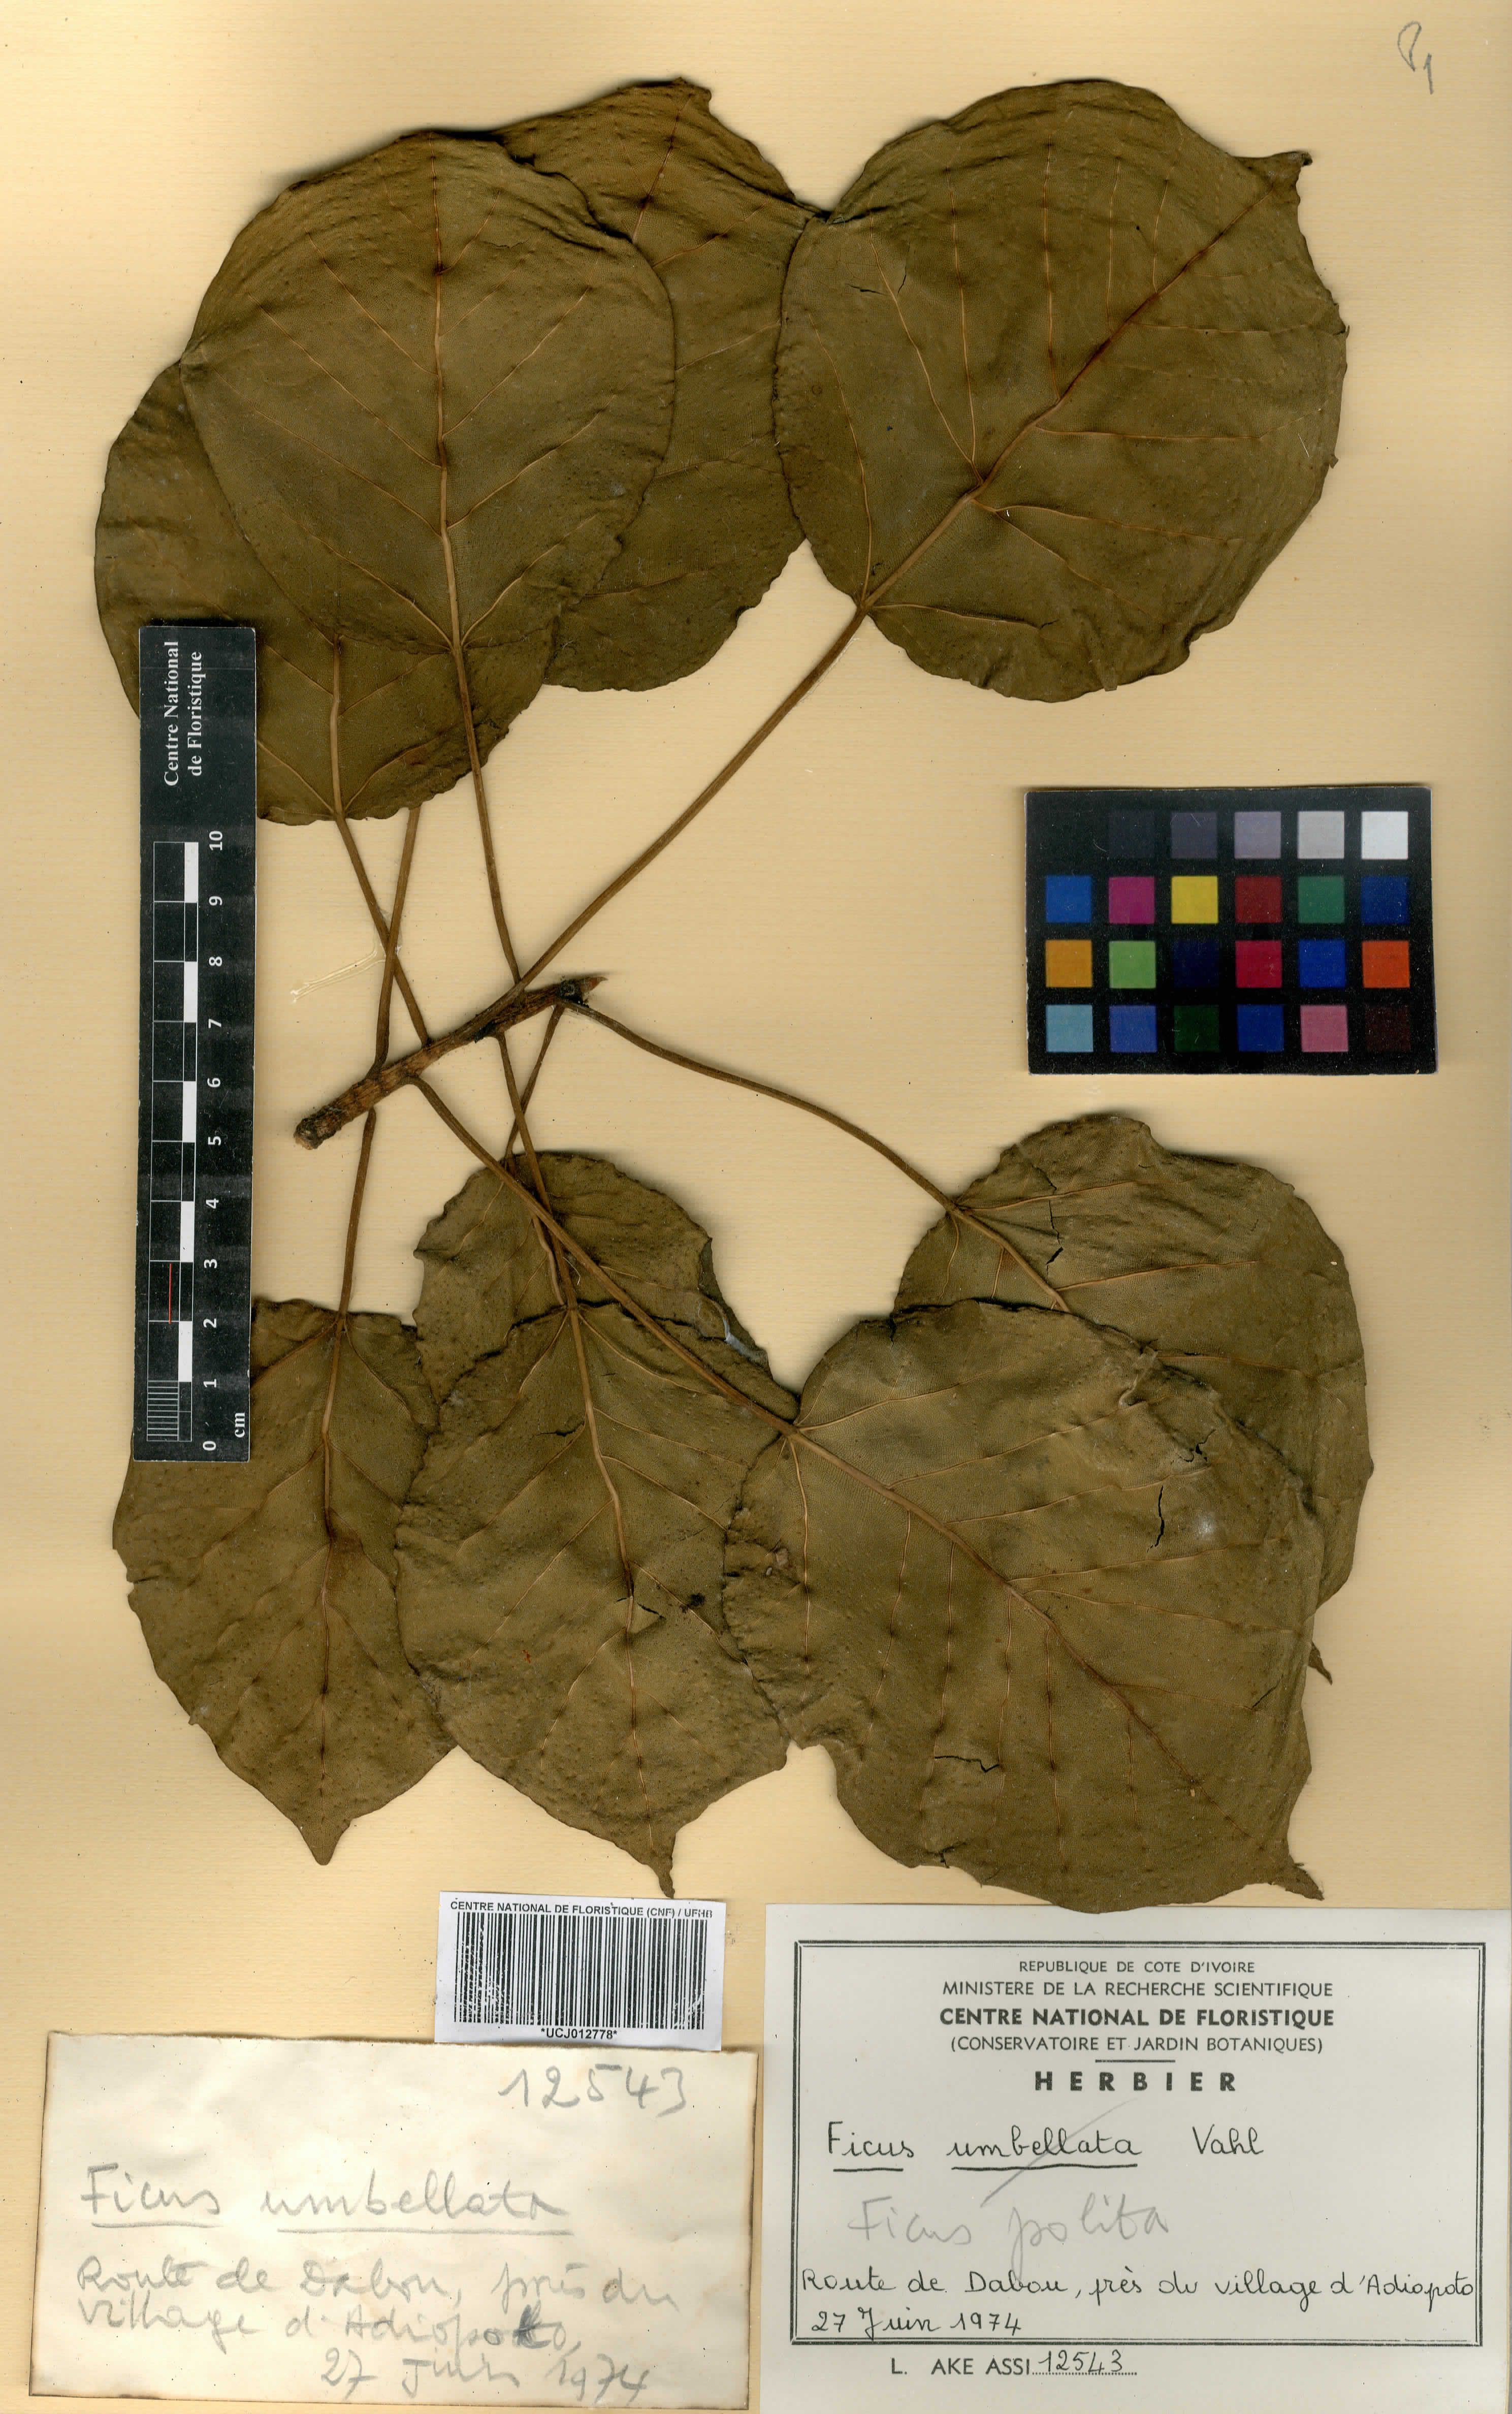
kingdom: Plantae
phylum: Tracheophyta
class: Magnoliopsida
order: Rosales
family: Moraceae
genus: Ficus
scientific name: Ficus polita
